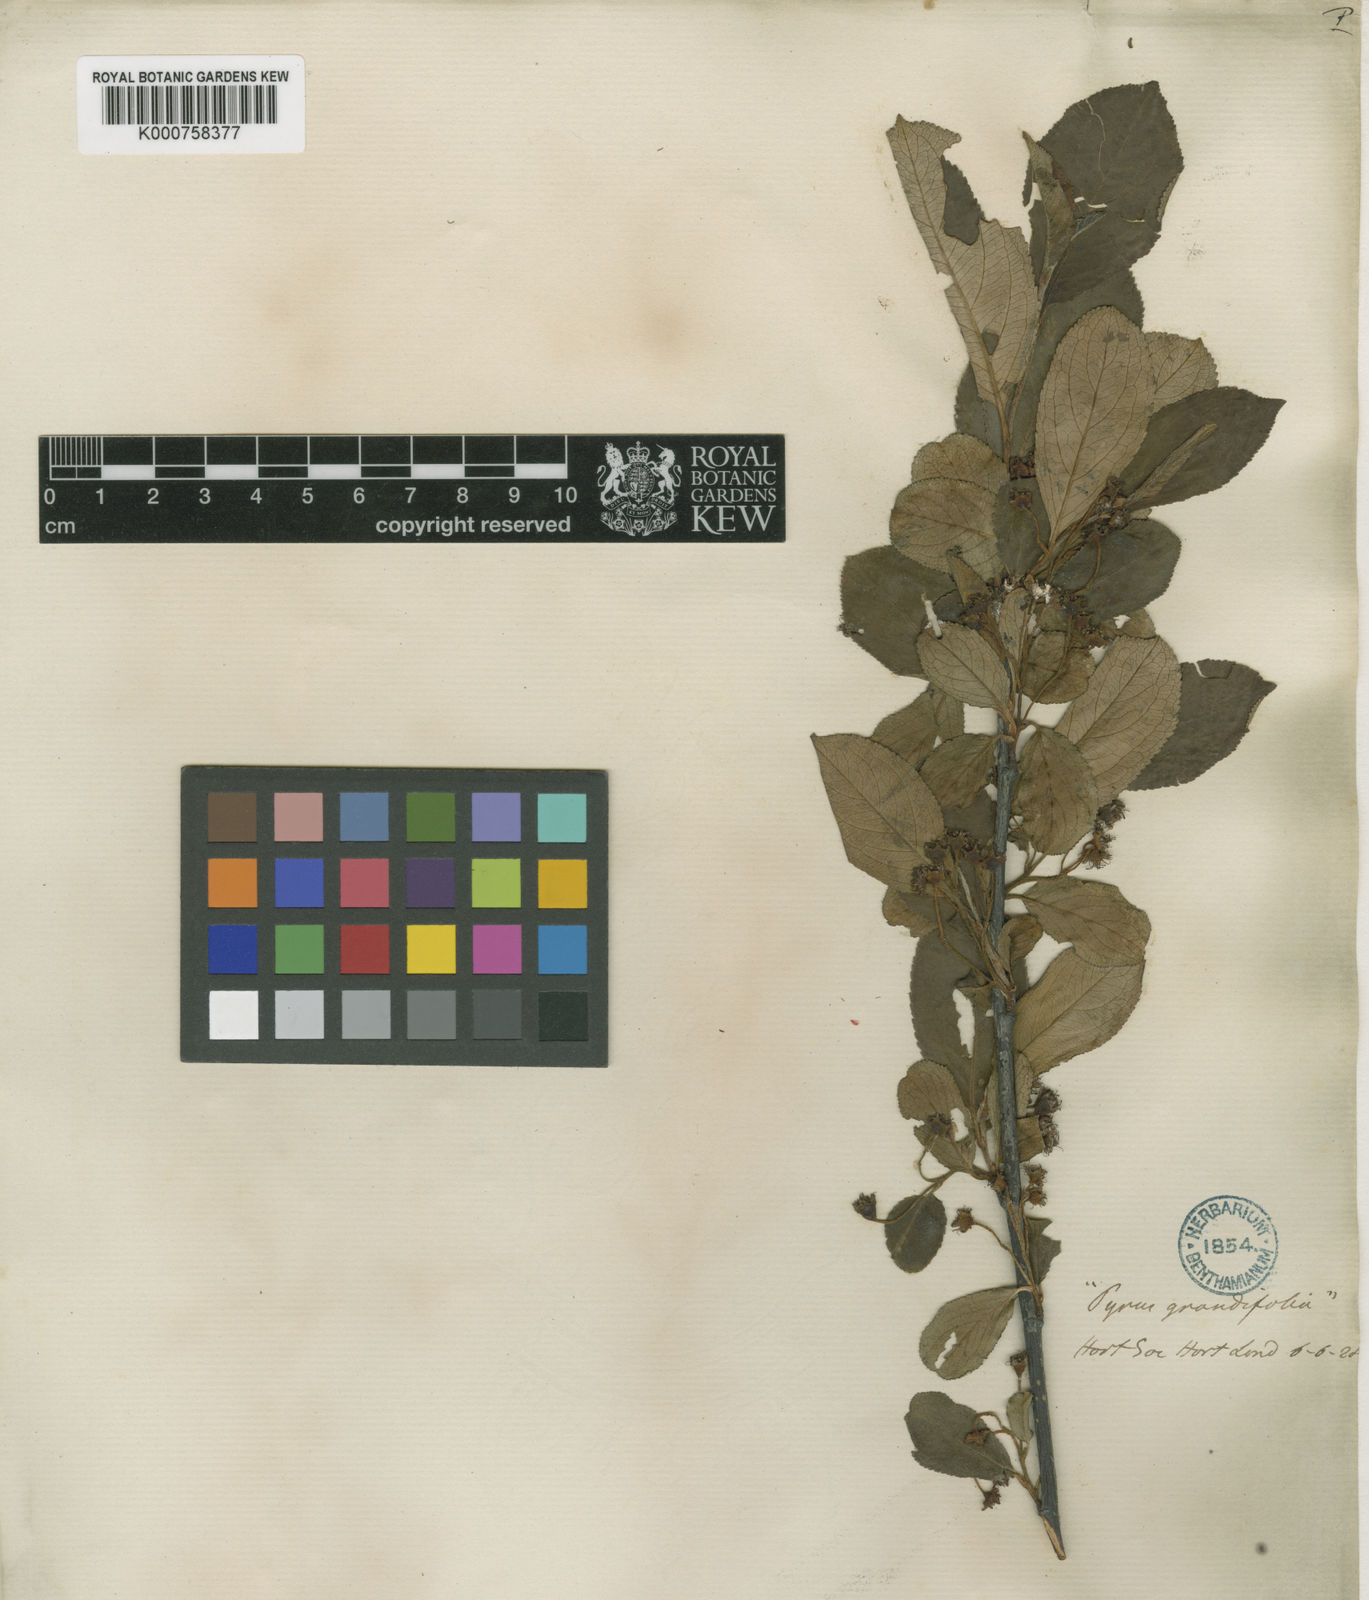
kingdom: Plantae
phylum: Tracheophyta
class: Magnoliopsida
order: Rosales
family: Rosaceae
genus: Aronia
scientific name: Aronia melanocarpa
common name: Black chokeberry
